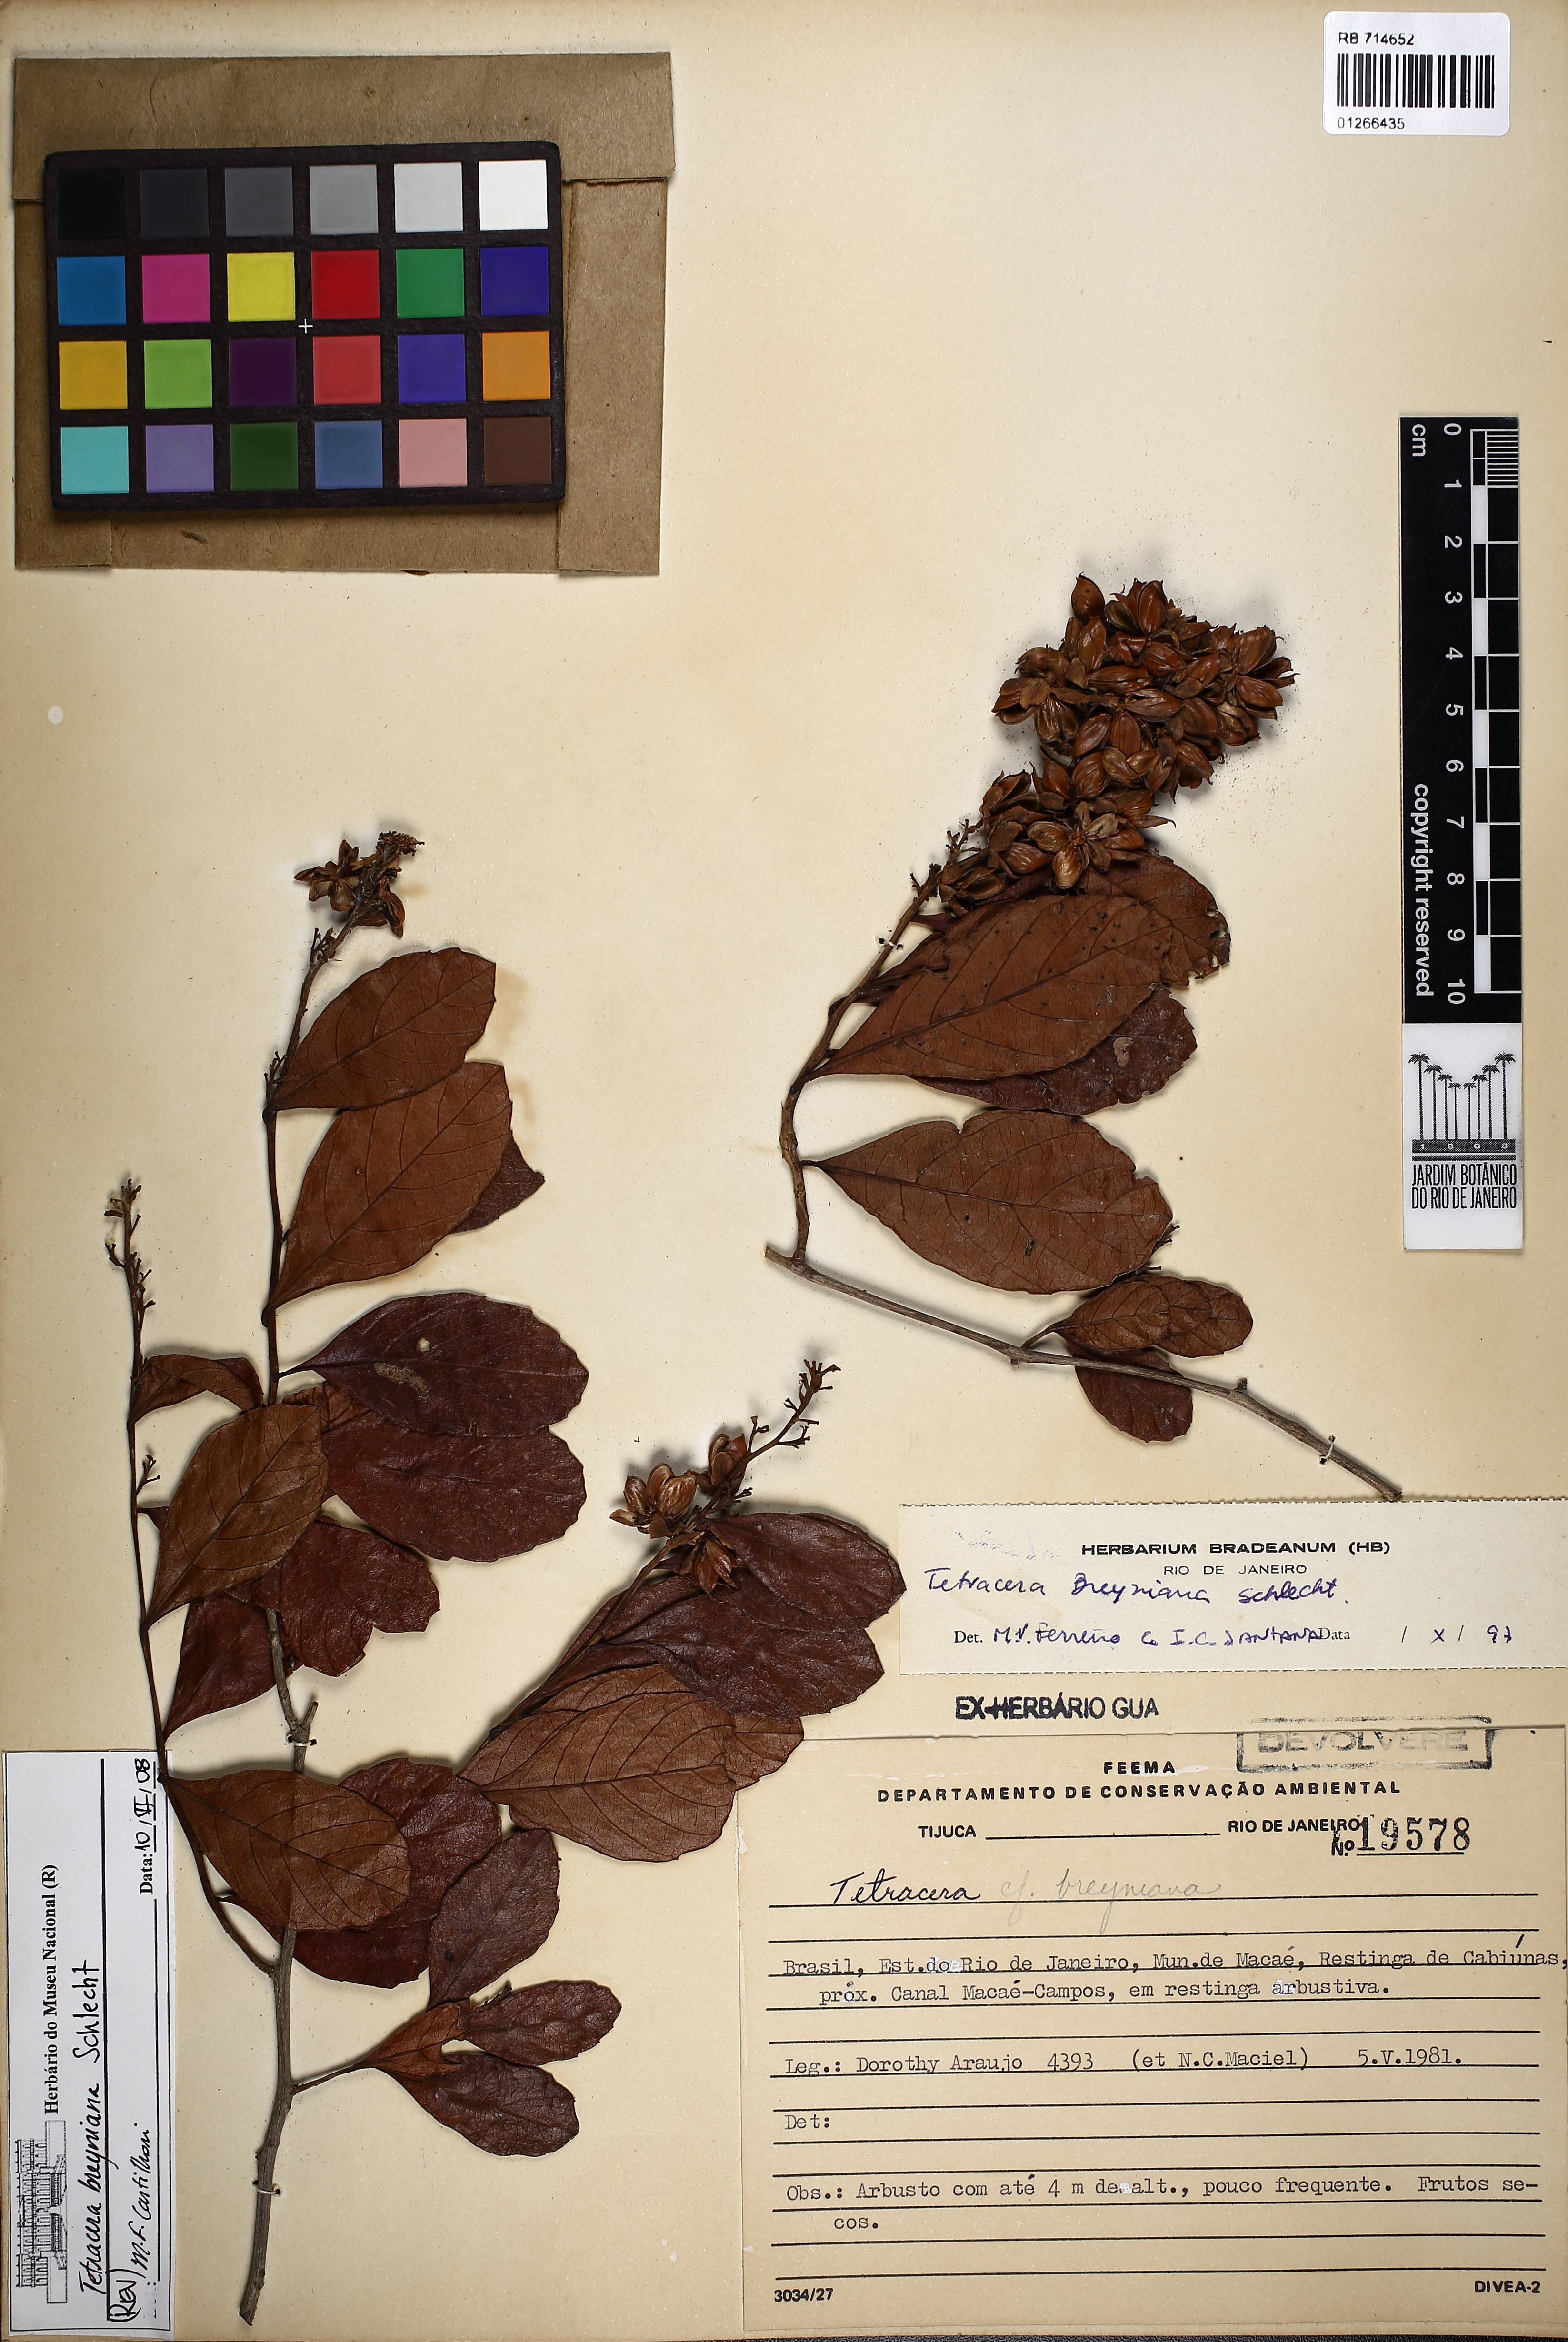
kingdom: Plantae
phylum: Tracheophyta
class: Magnoliopsida
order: Dilleniales
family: Dilleniaceae
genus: Tetracera
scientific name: Tetracera breyniana
